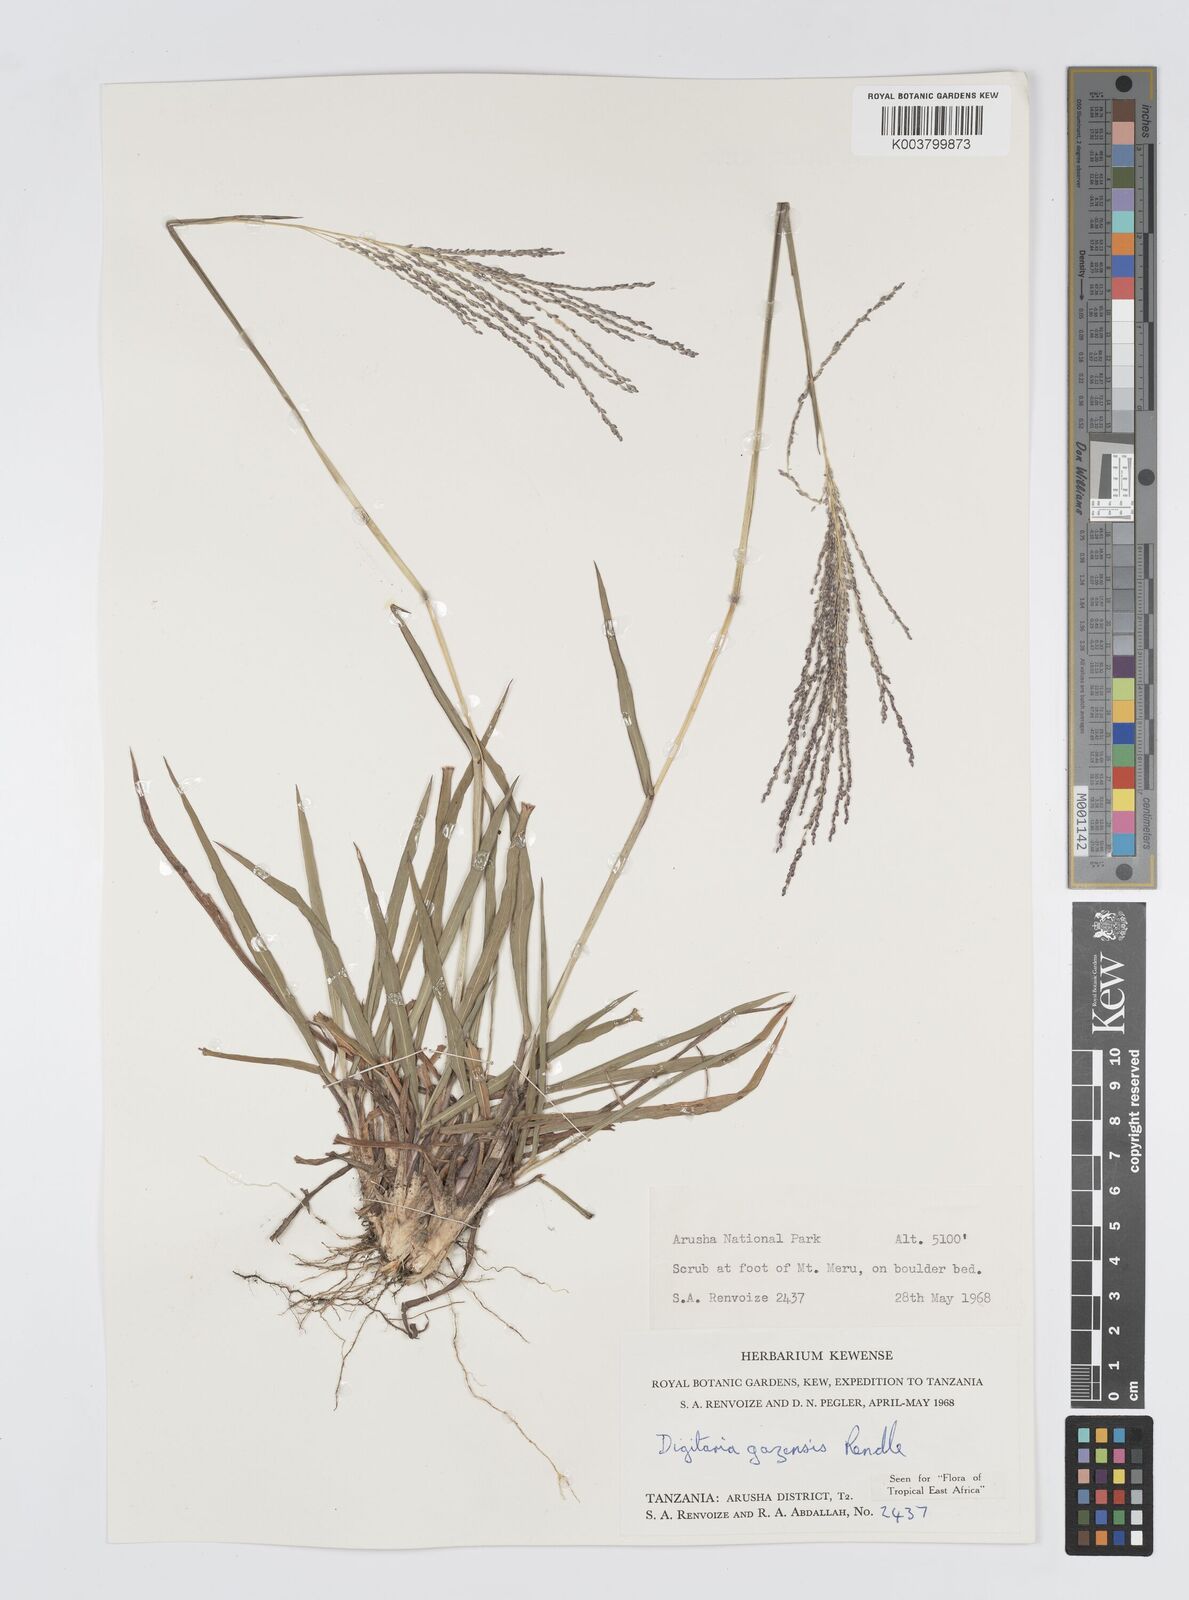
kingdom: Plantae
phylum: Tracheophyta
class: Liliopsida
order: Poales
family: Poaceae
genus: Digitaria
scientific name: Digitaria gazensis
